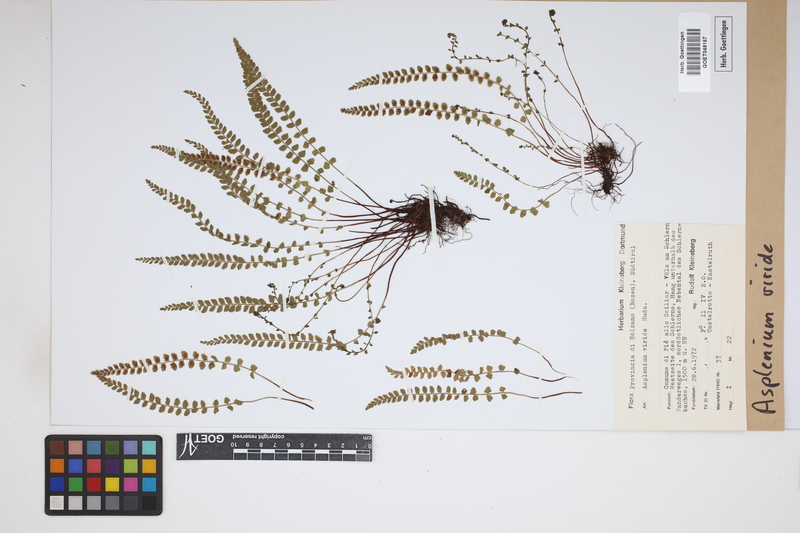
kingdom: Plantae
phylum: Tracheophyta
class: Polypodiopsida
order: Polypodiales
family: Aspleniaceae
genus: Asplenium
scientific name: Asplenium viride
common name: Green spleenwort
